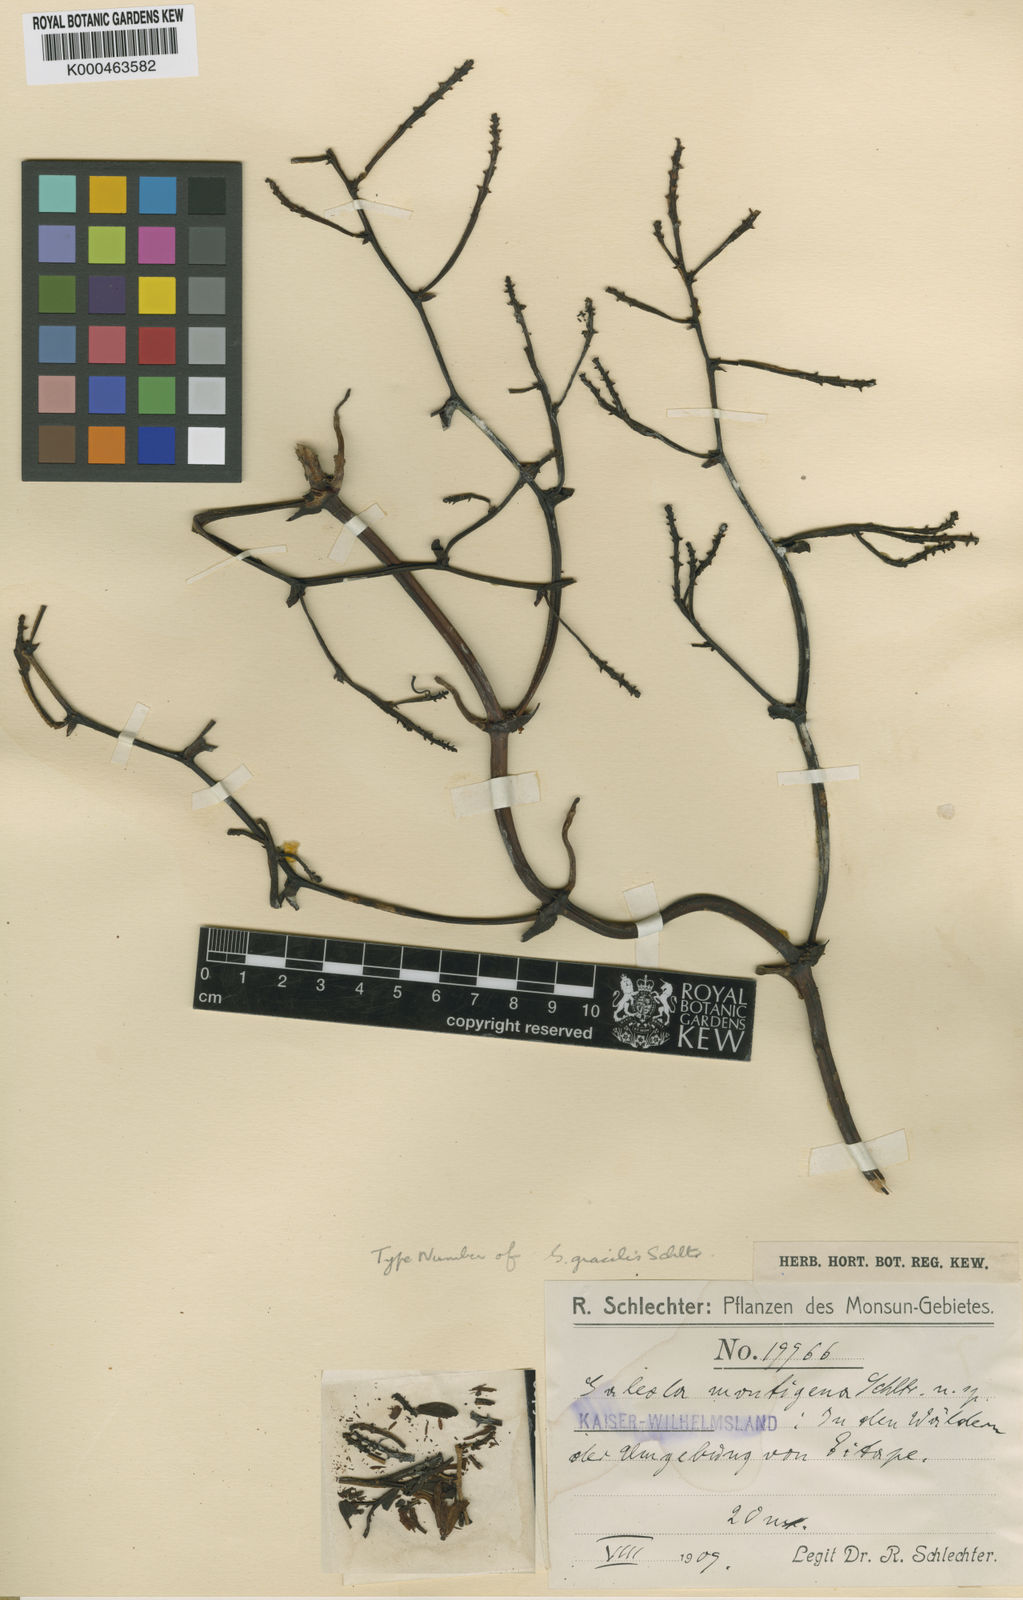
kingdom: Plantae
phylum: Tracheophyta
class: Liliopsida
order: Asparagales
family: Orchidaceae
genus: Pseudovanilla
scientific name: Pseudovanilla foliata
